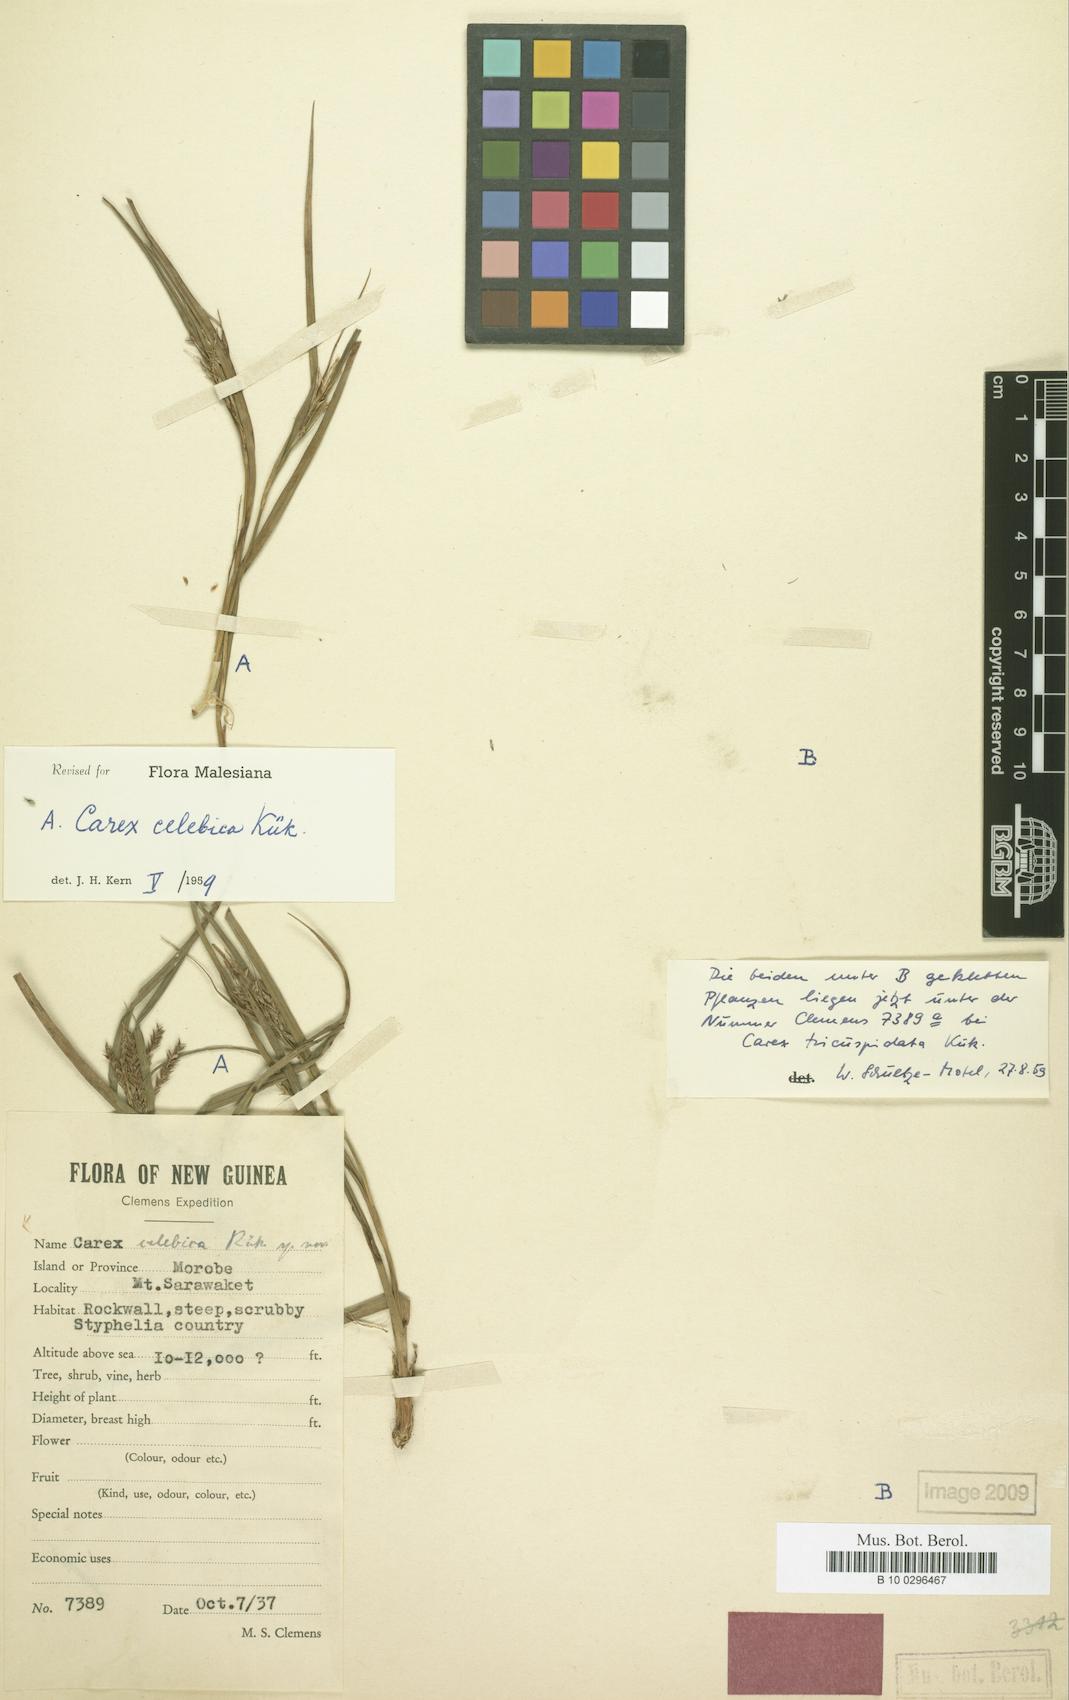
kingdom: Plantae
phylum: Tracheophyta
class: Liliopsida
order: Poales
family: Cyperaceae
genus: Carex
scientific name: Carex celebica
